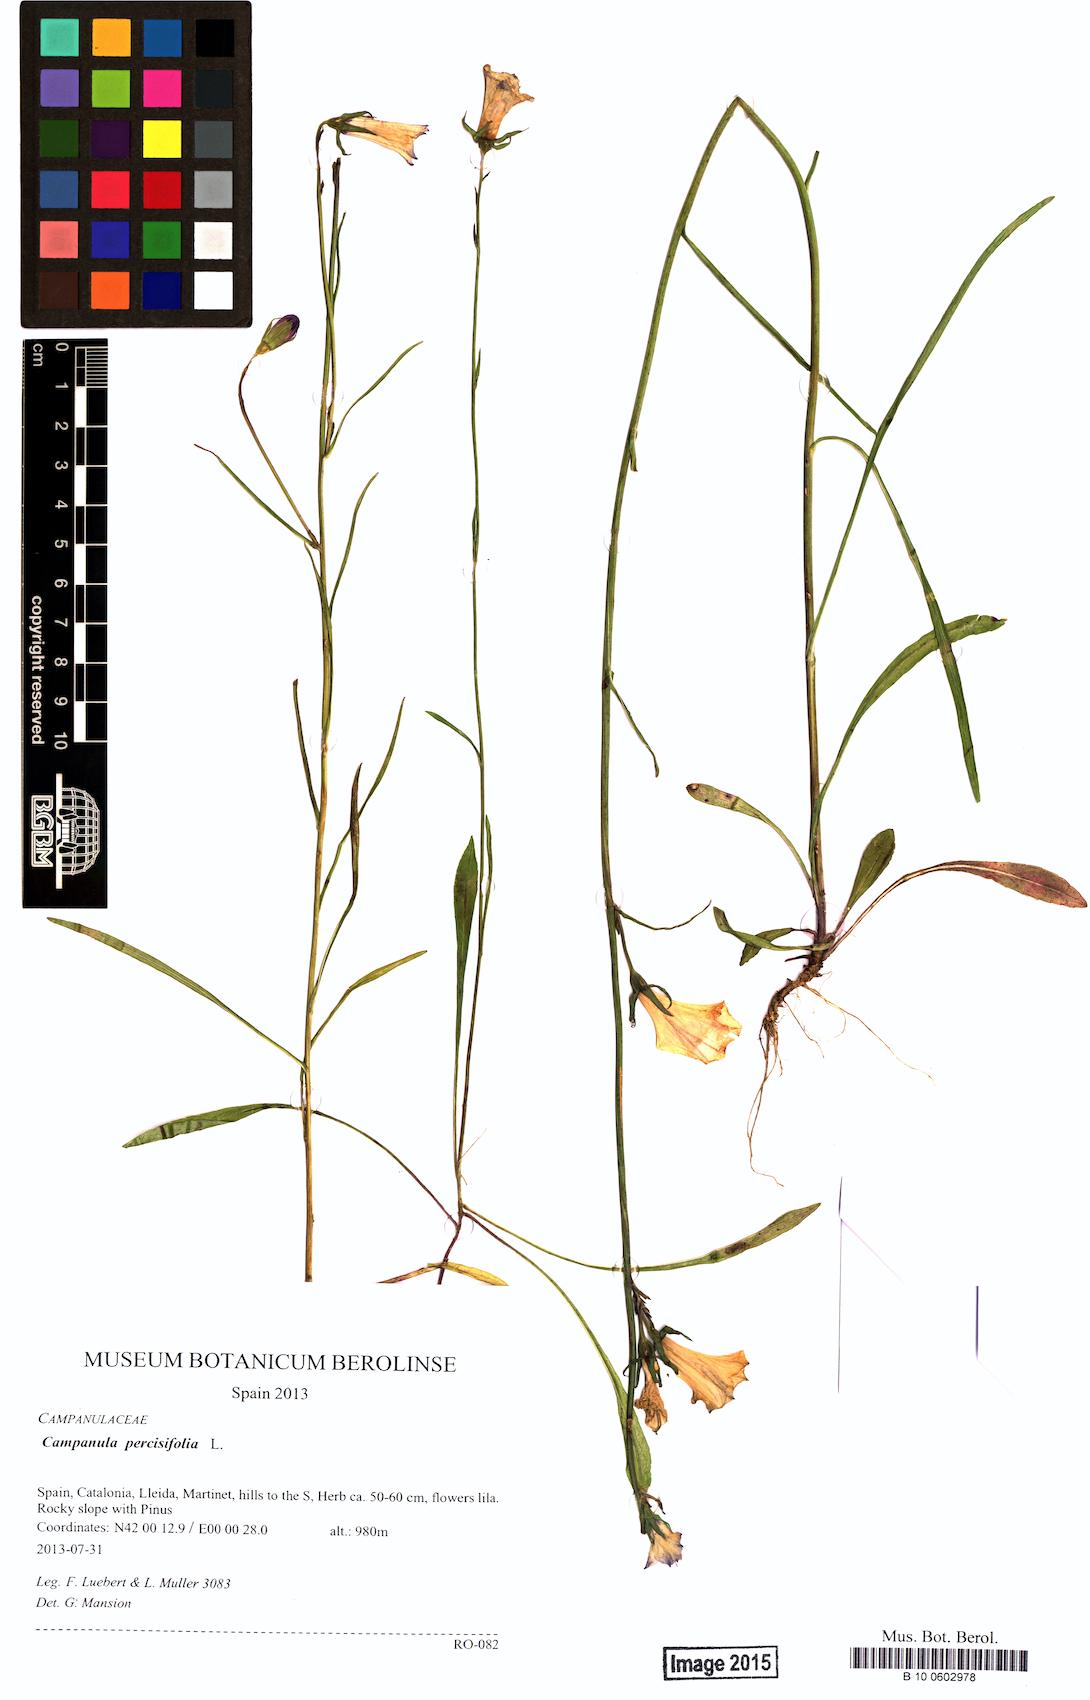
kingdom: Plantae
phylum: Tracheophyta
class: Magnoliopsida
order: Asterales
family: Campanulaceae
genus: Campanula
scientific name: Campanula persicifolia
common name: Peach-leaved bellflower
